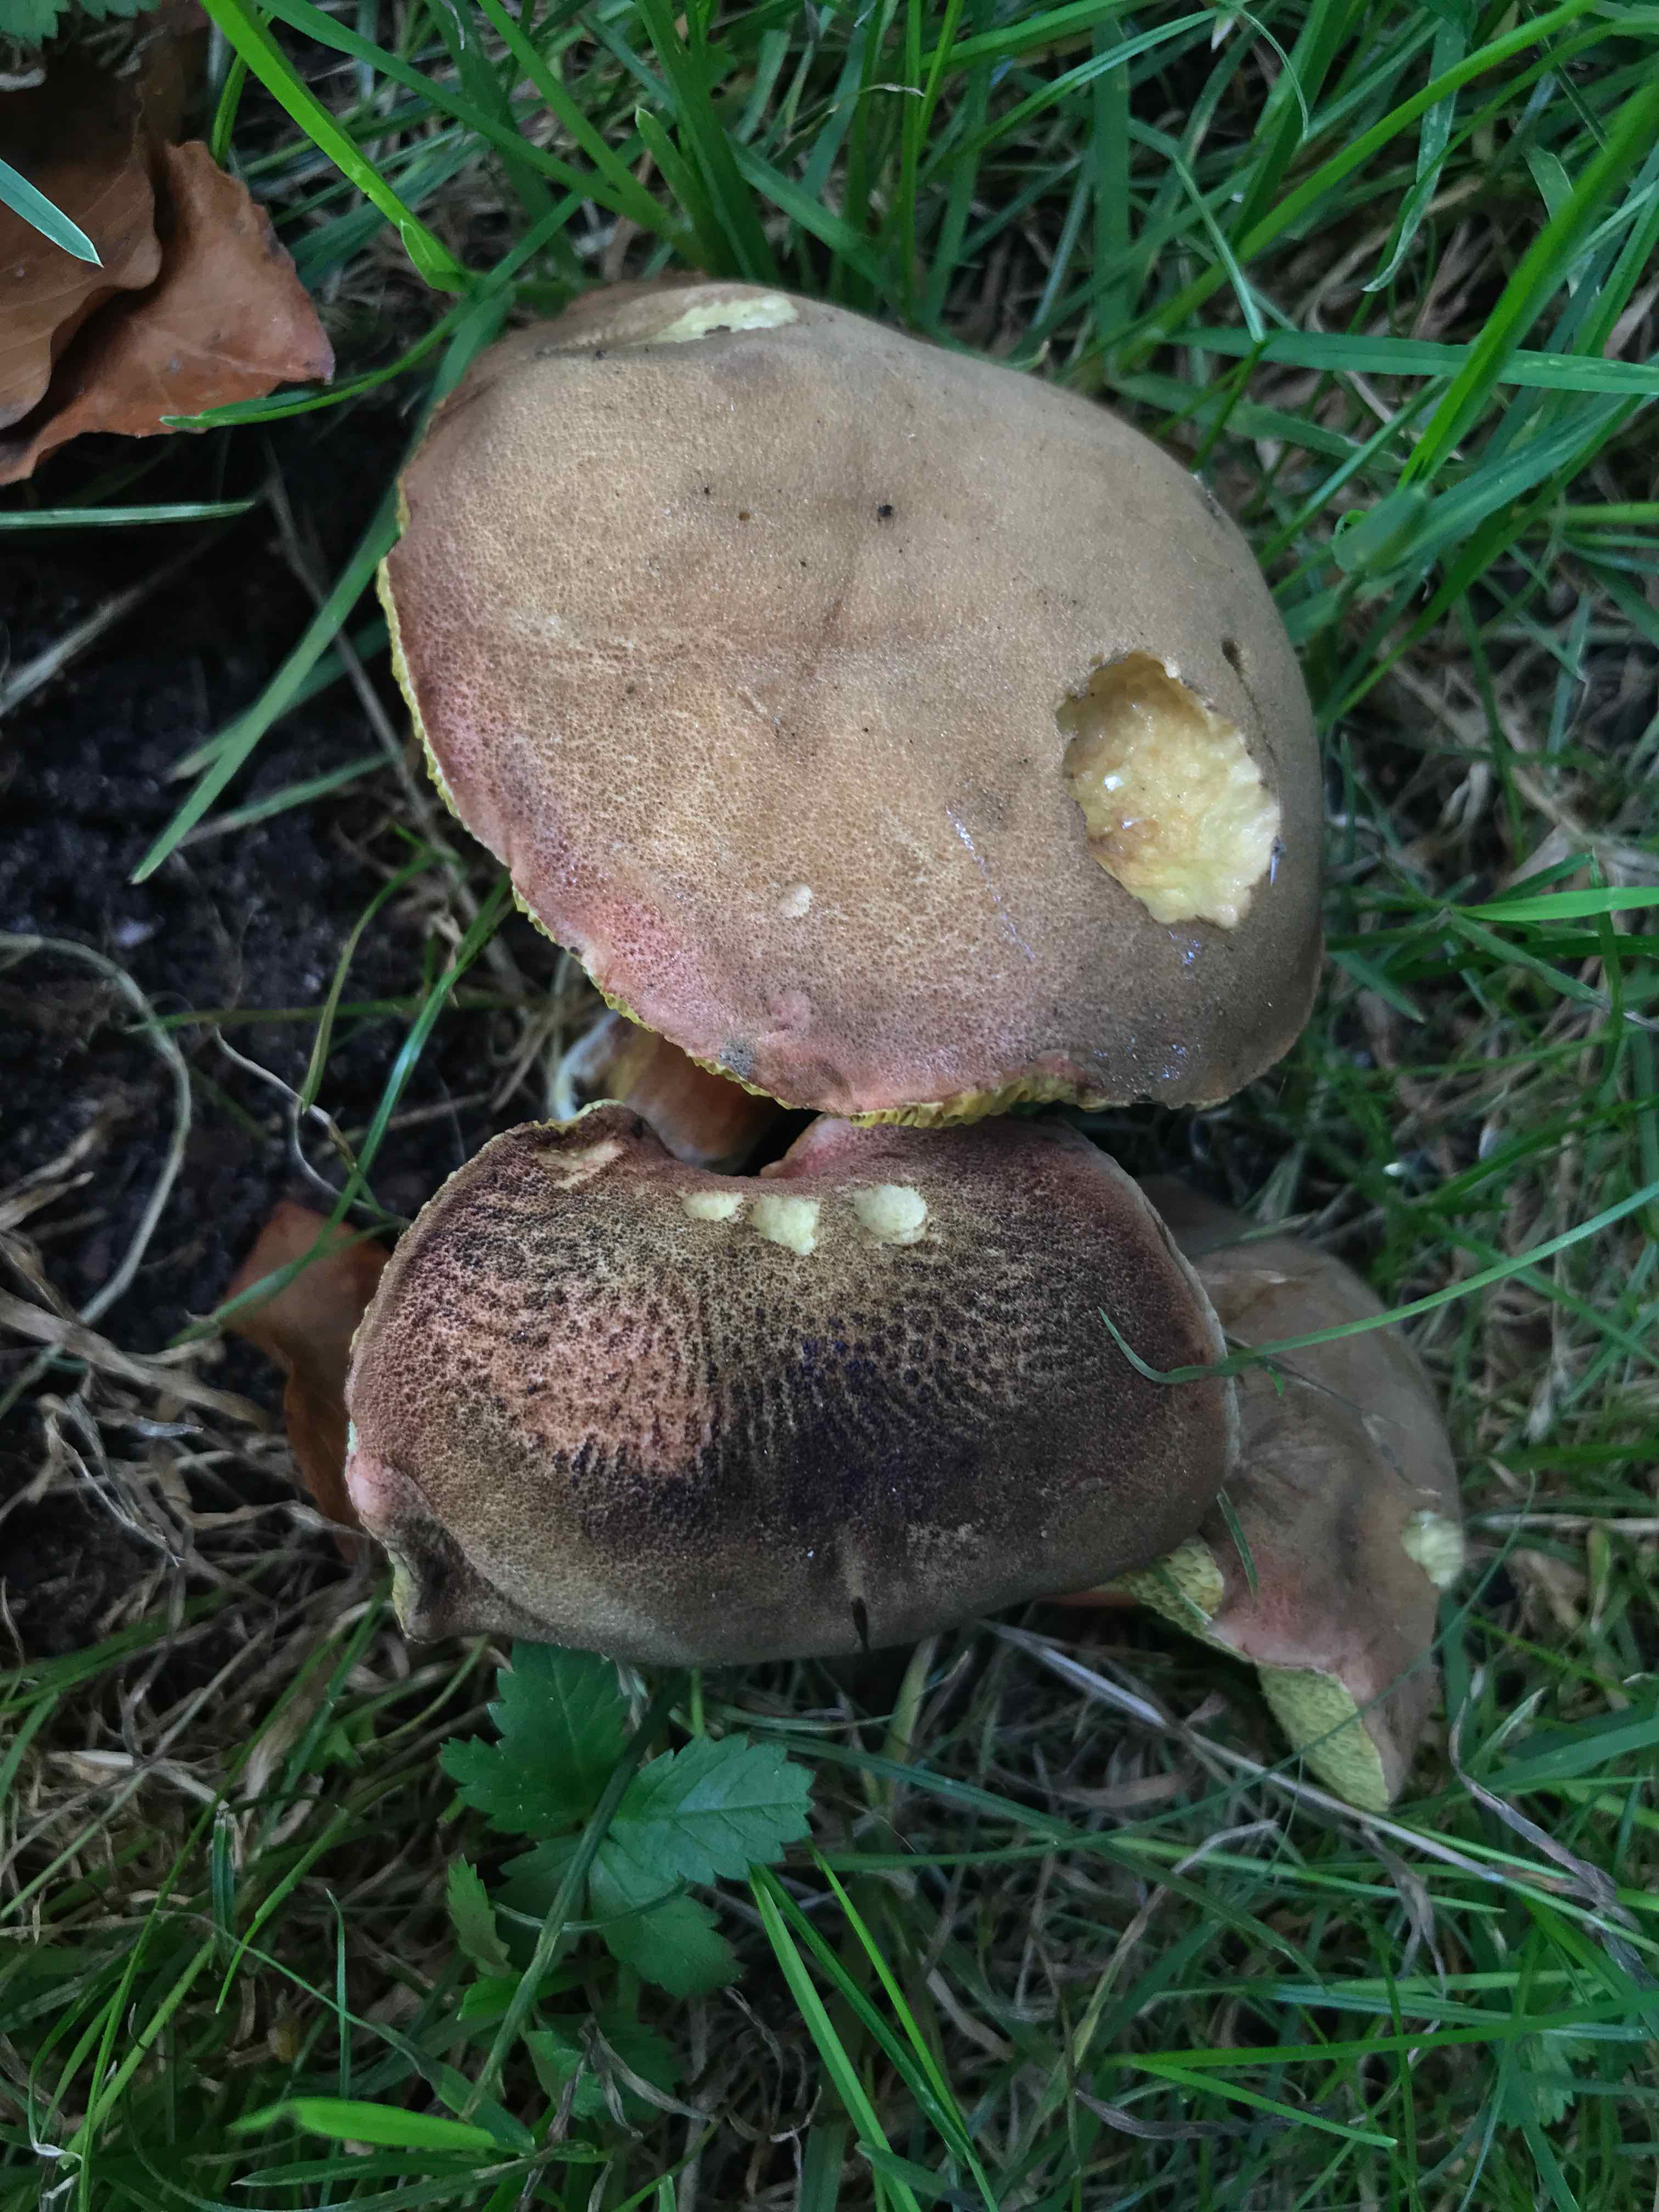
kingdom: Fungi
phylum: Basidiomycota
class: Agaricomycetes
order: Boletales
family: Boletaceae
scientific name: Boletaceae
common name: rørhatfamilien
